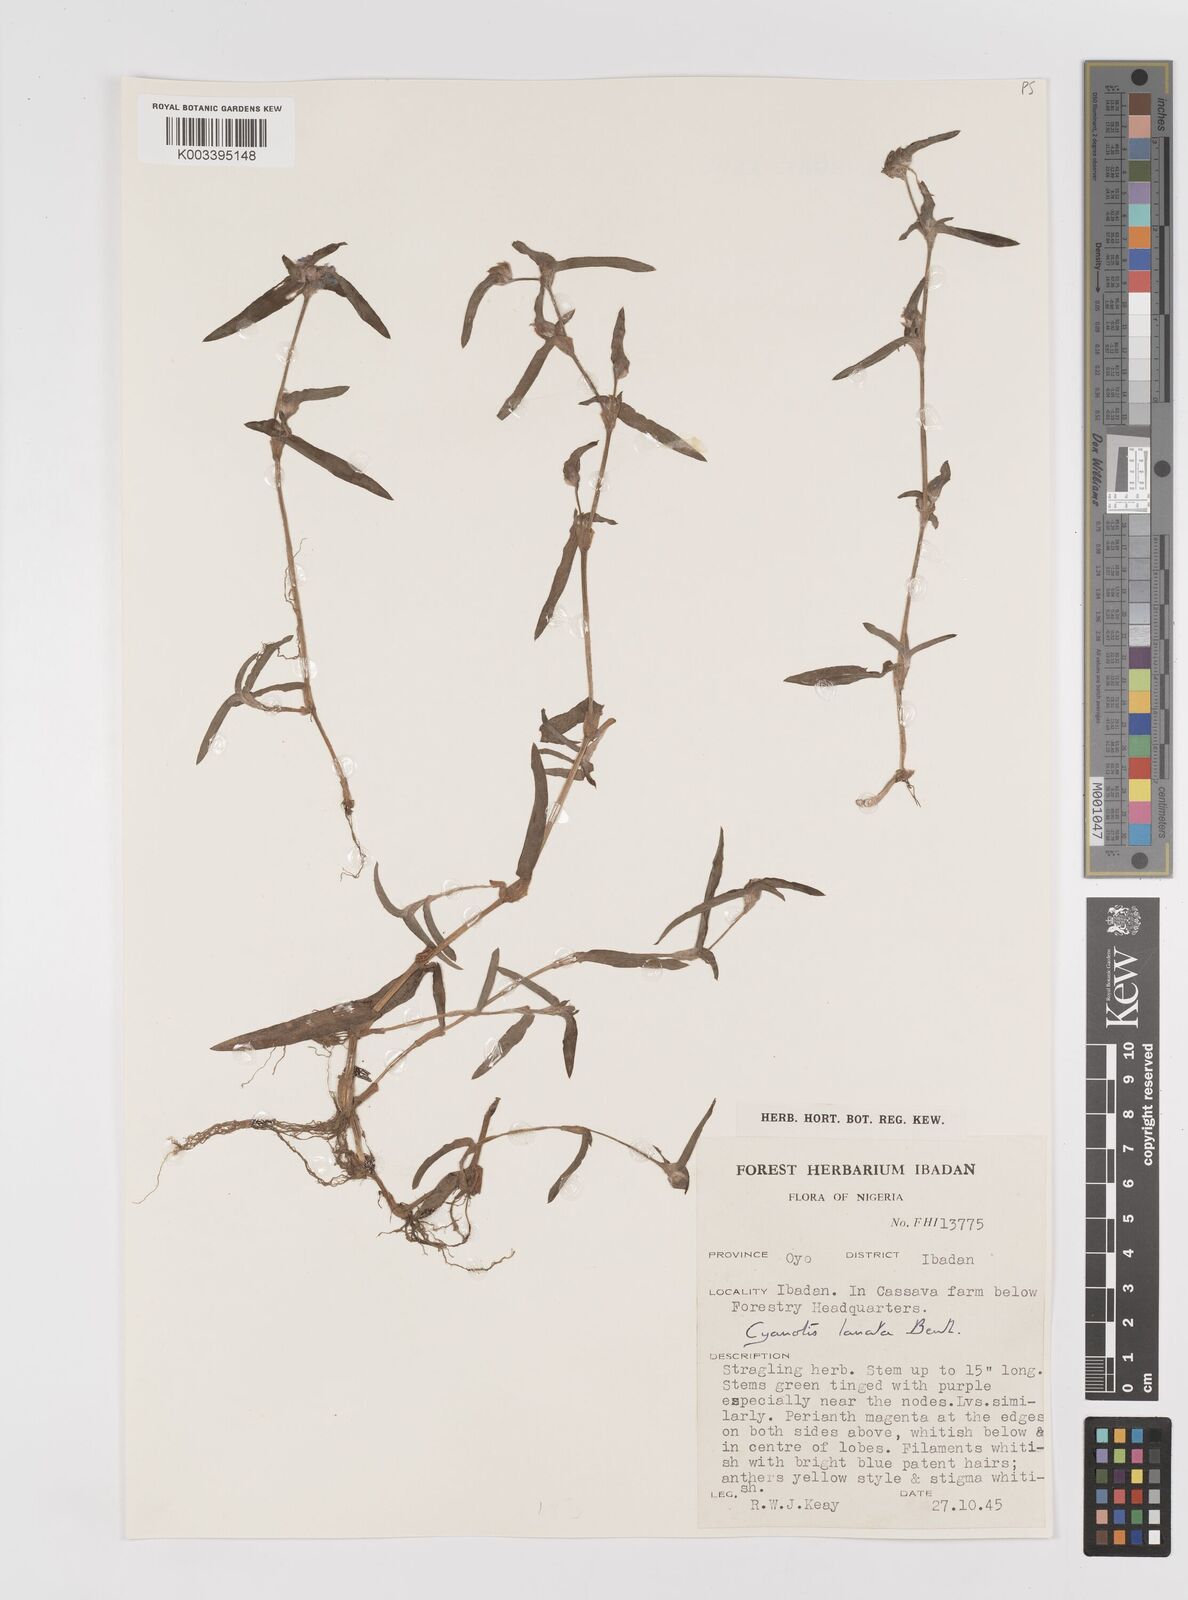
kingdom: Plantae
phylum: Tracheophyta
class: Liliopsida
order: Commelinales
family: Commelinaceae
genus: Cyanotis
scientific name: Cyanotis lanata
